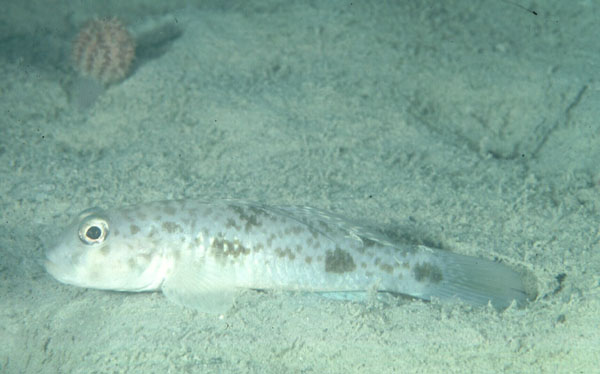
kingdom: Animalia
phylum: Chordata
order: Perciformes
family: Gobiidae
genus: Yongeichthys
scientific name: Yongeichthys
